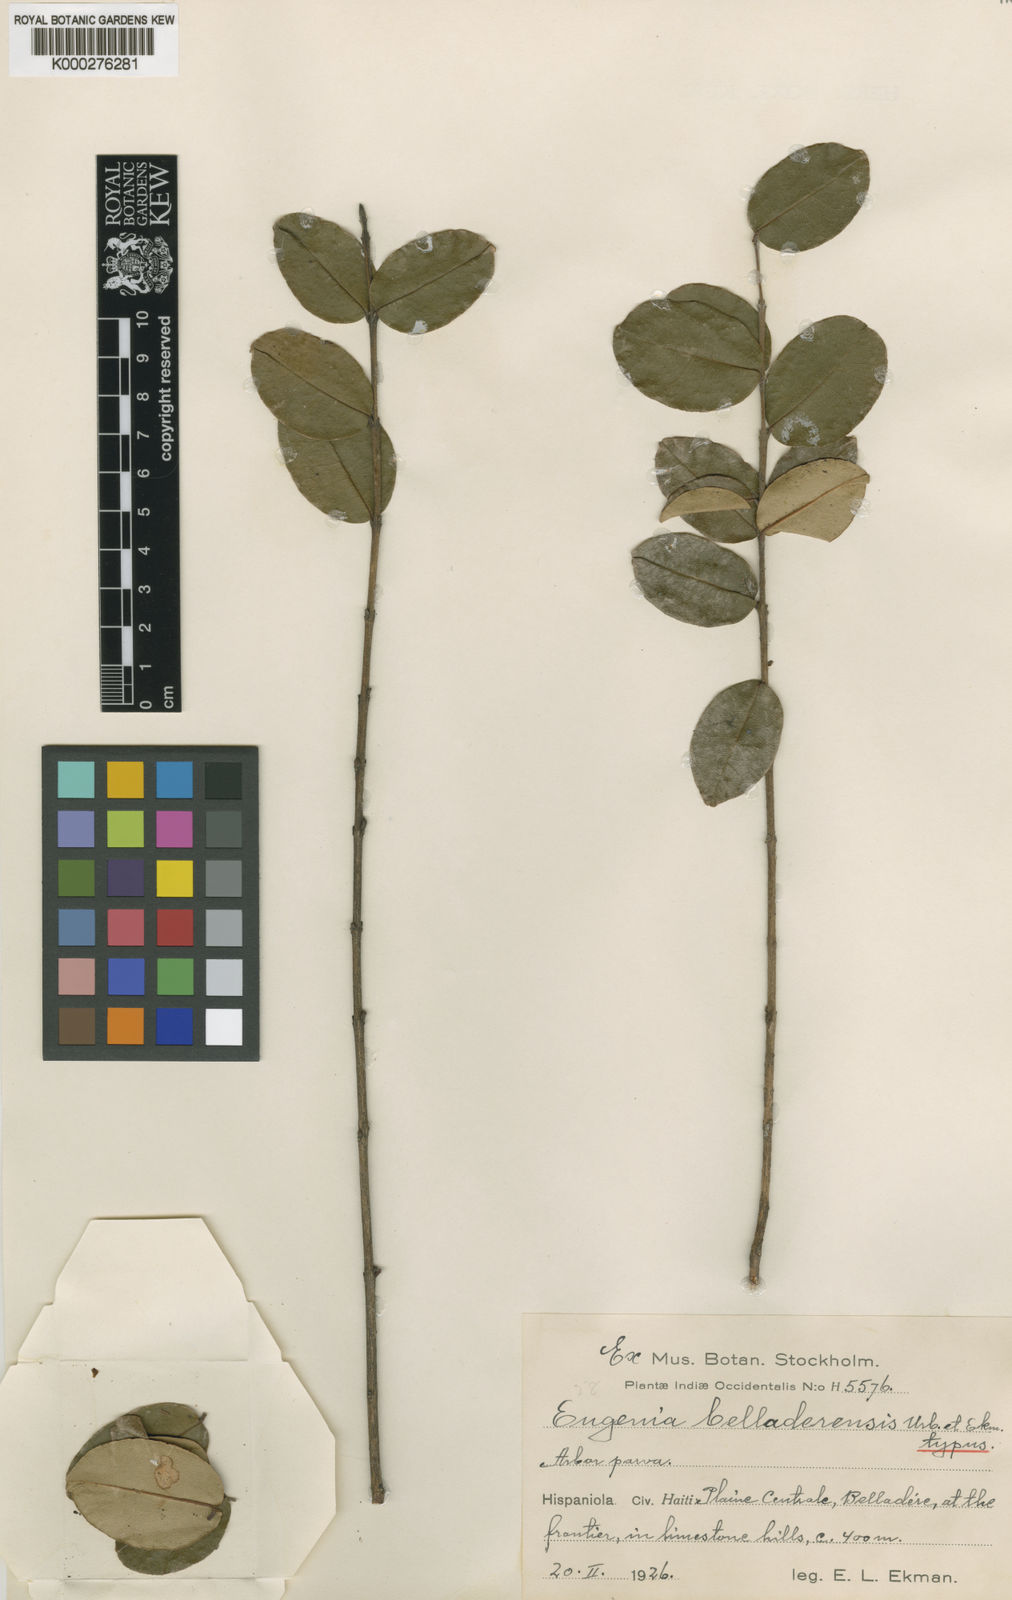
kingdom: Plantae
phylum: Tracheophyta
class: Magnoliopsida
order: Myrtales
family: Myrtaceae
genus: Eugenia
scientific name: Eugenia
